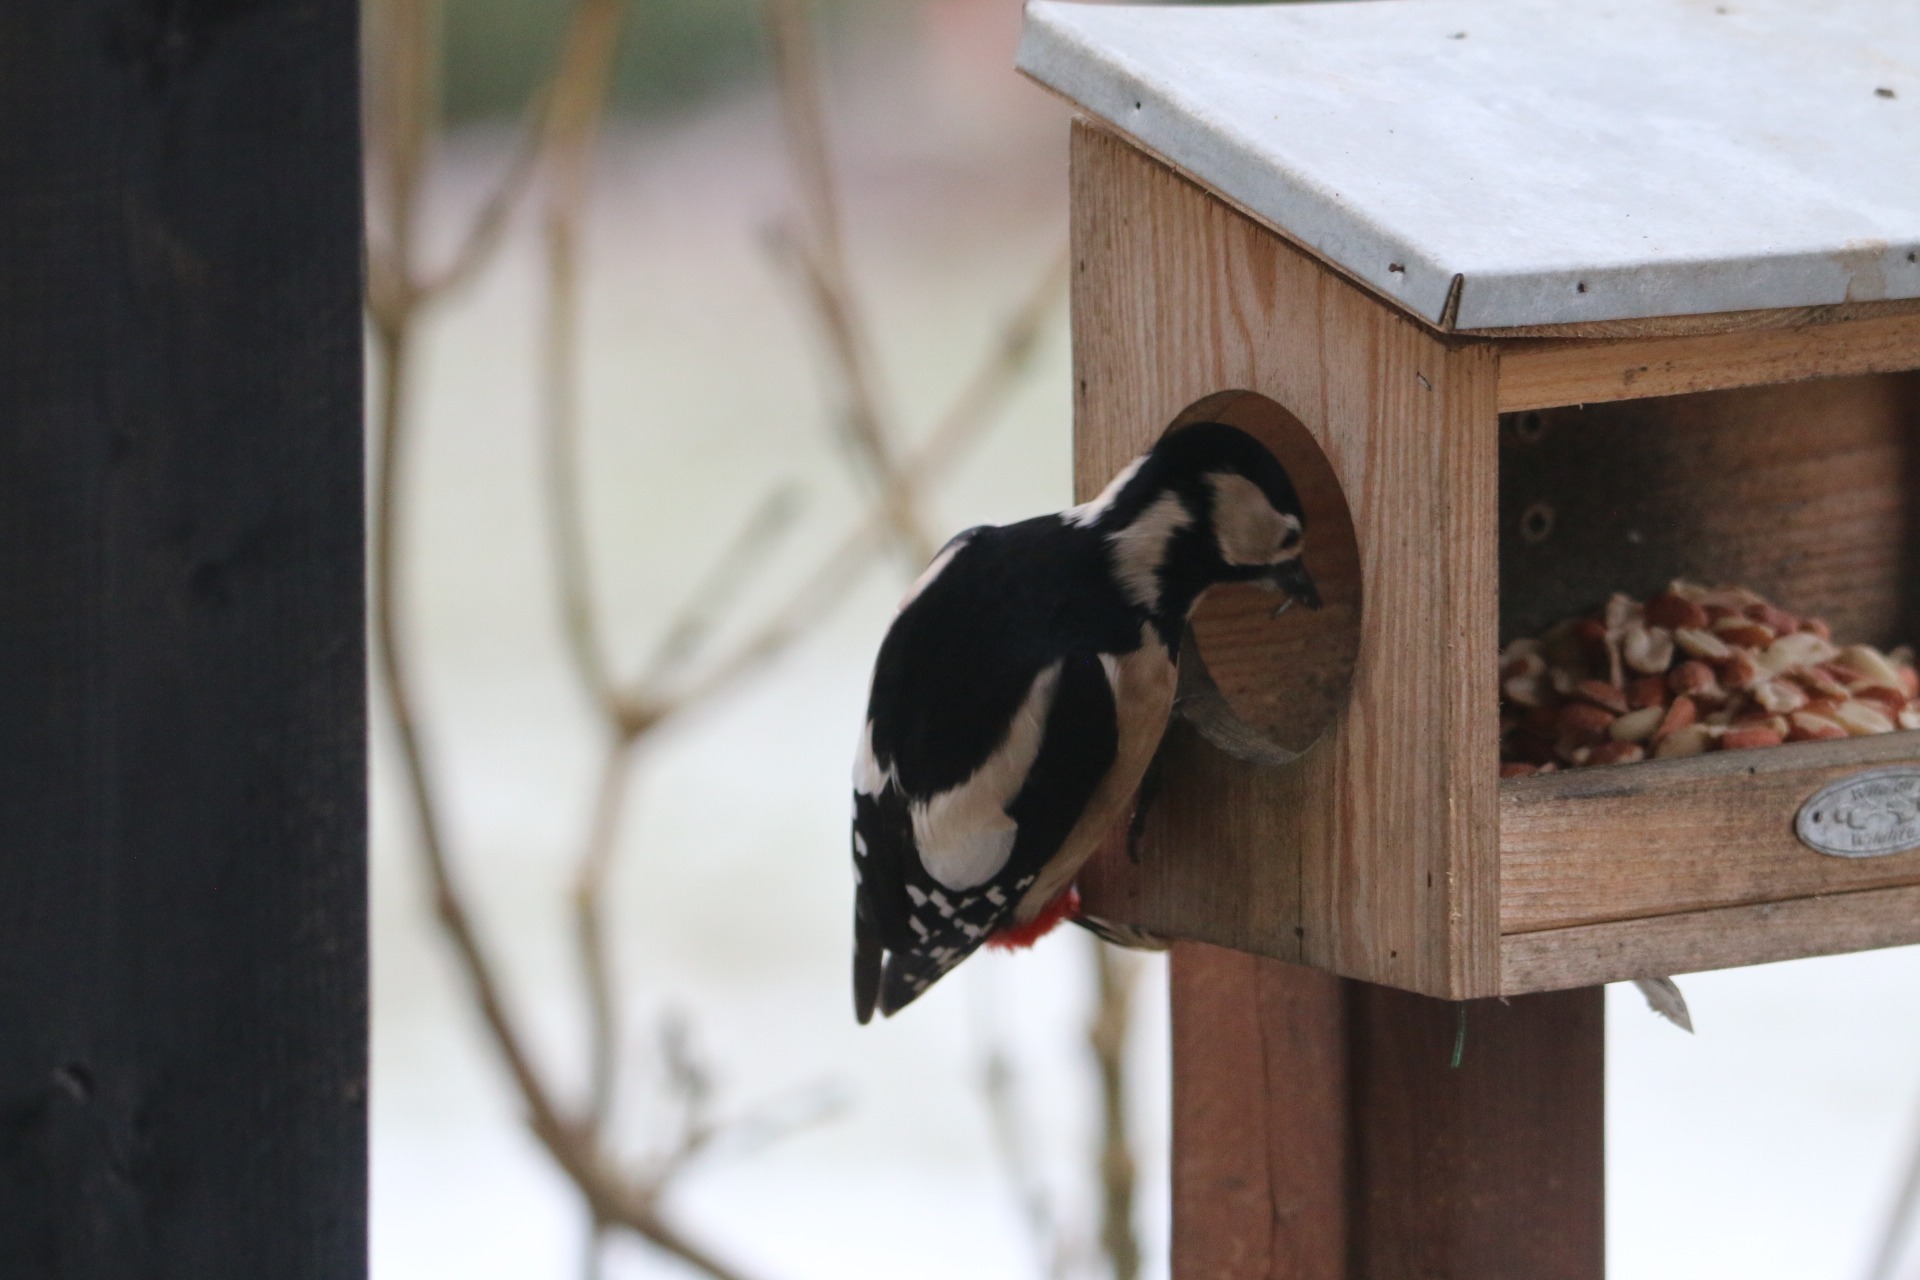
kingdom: Animalia
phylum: Chordata
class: Aves
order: Piciformes
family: Picidae
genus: Dendrocopos
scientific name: Dendrocopos major
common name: Stor flagspætte
